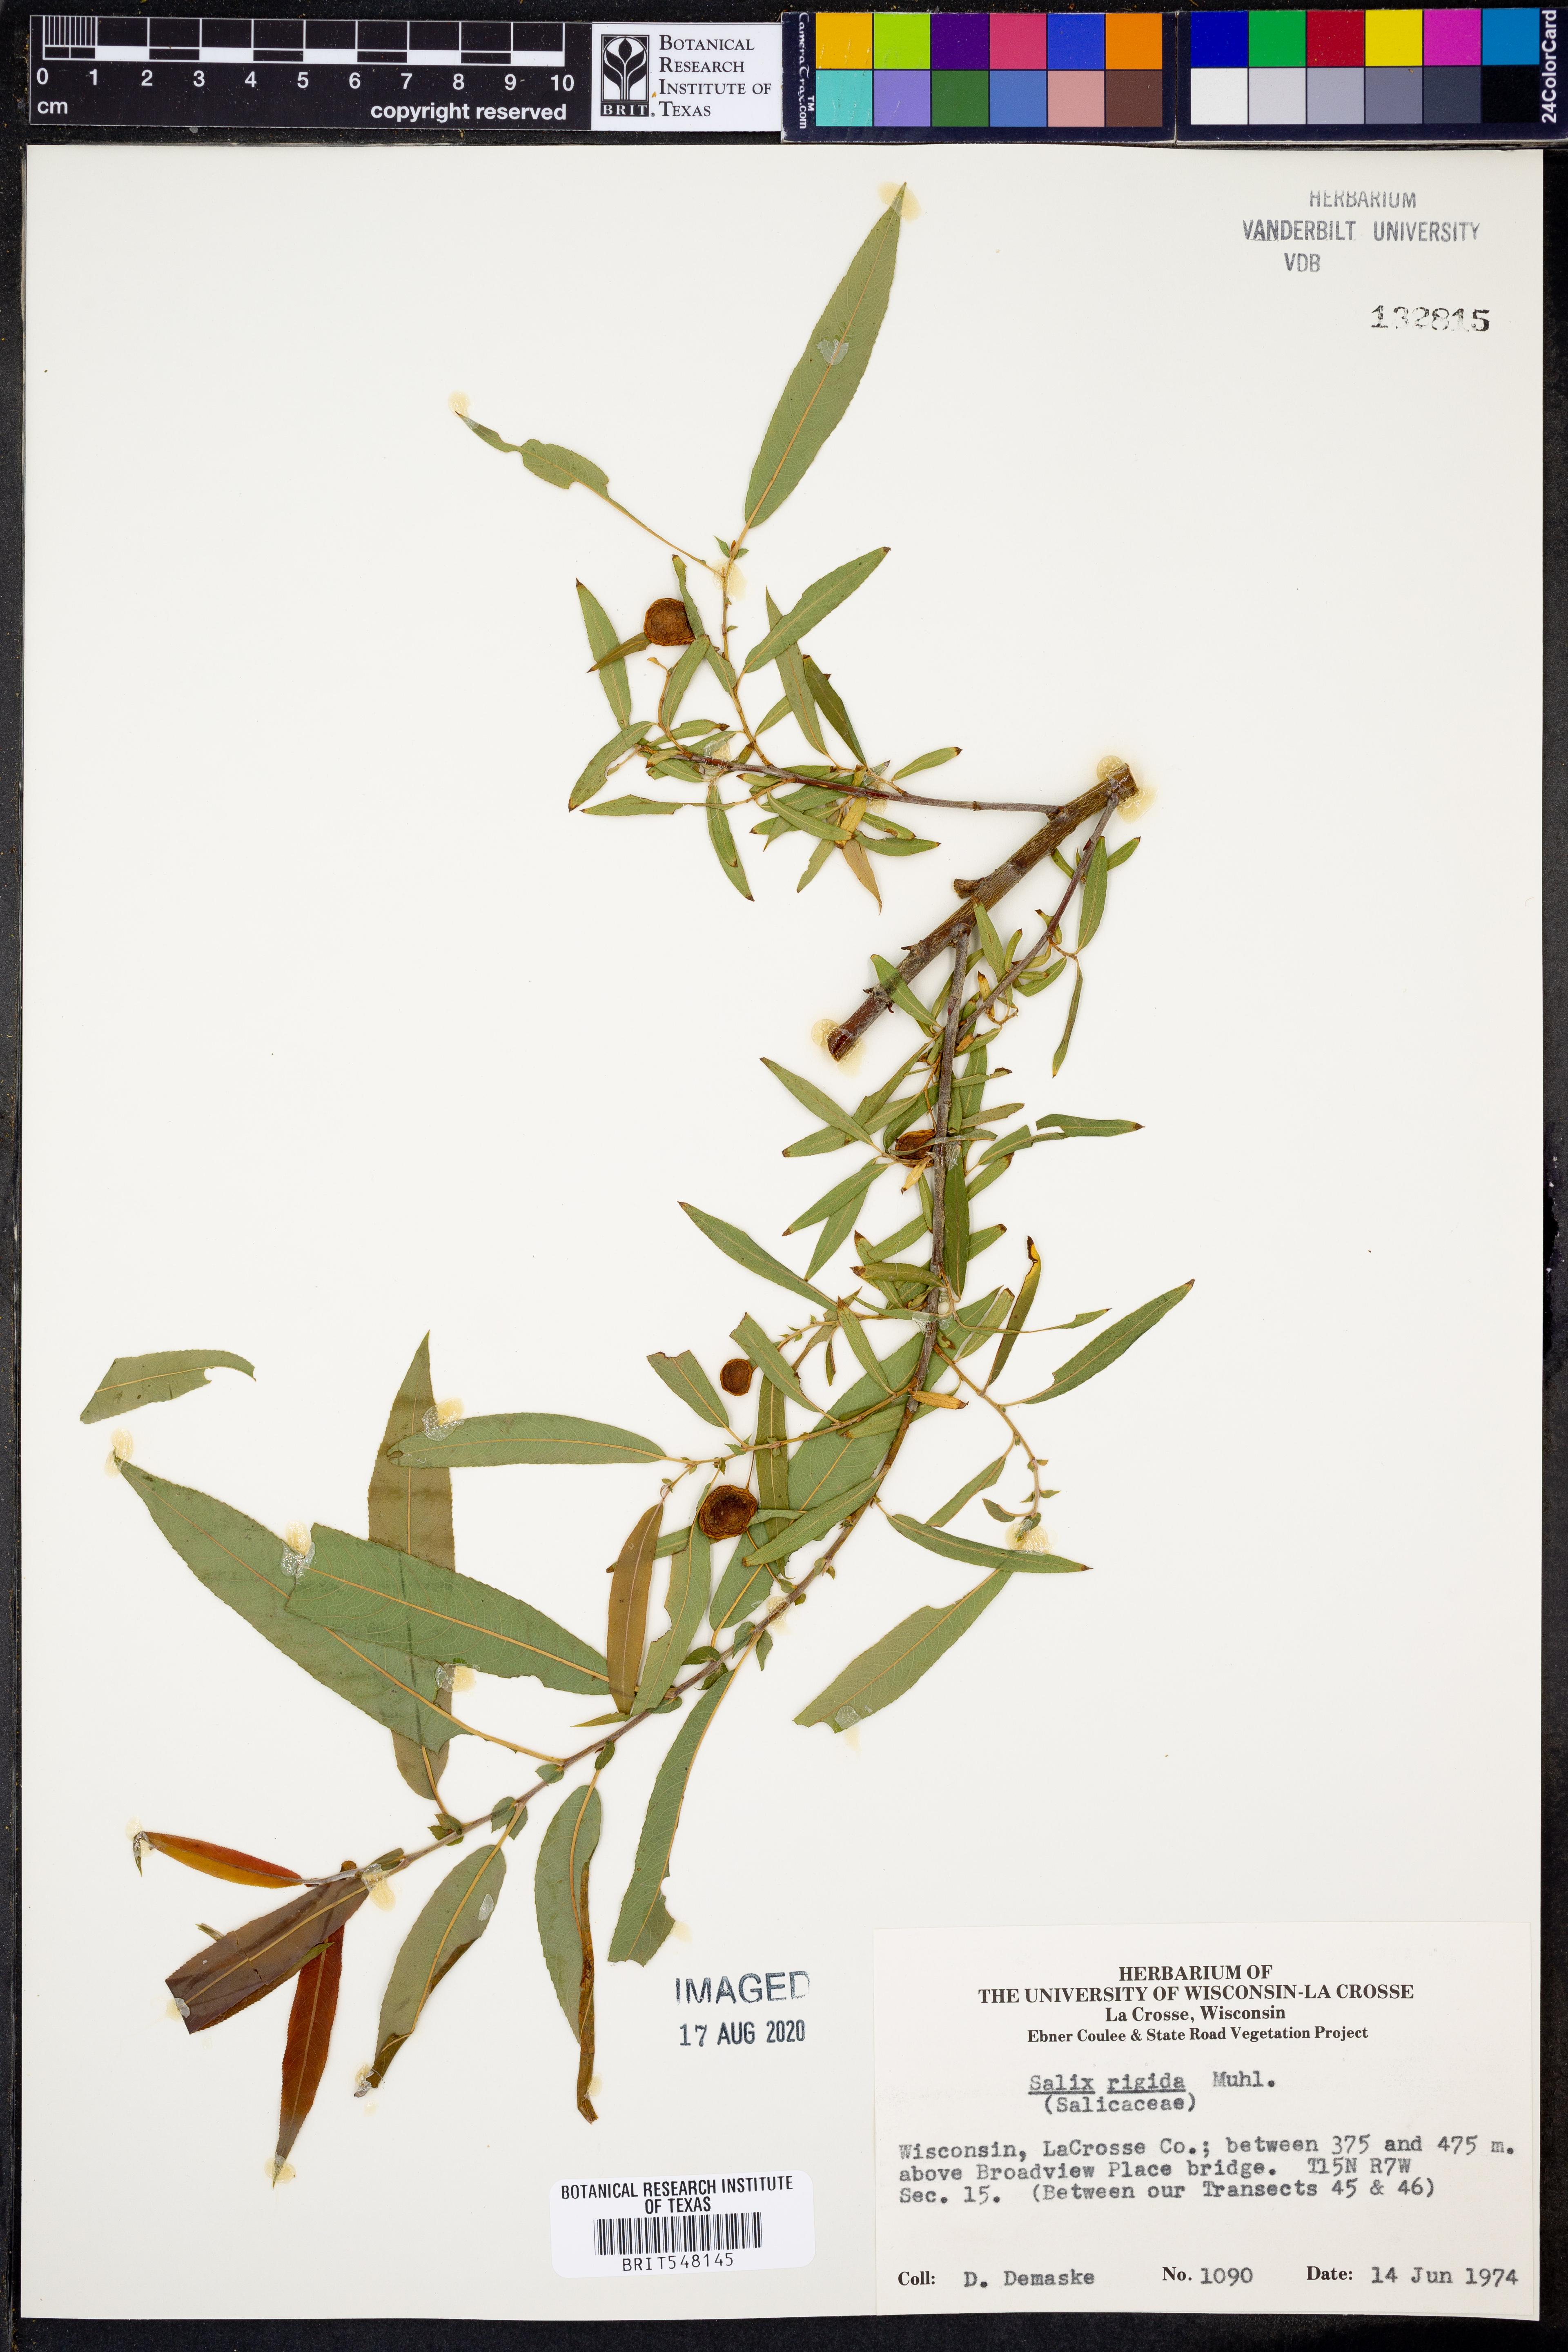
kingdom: Plantae
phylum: Tracheophyta
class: Magnoliopsida
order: Malpighiales
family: Salicaceae
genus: Salix
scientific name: Salix eriocephala
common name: Heart-leaved willow
